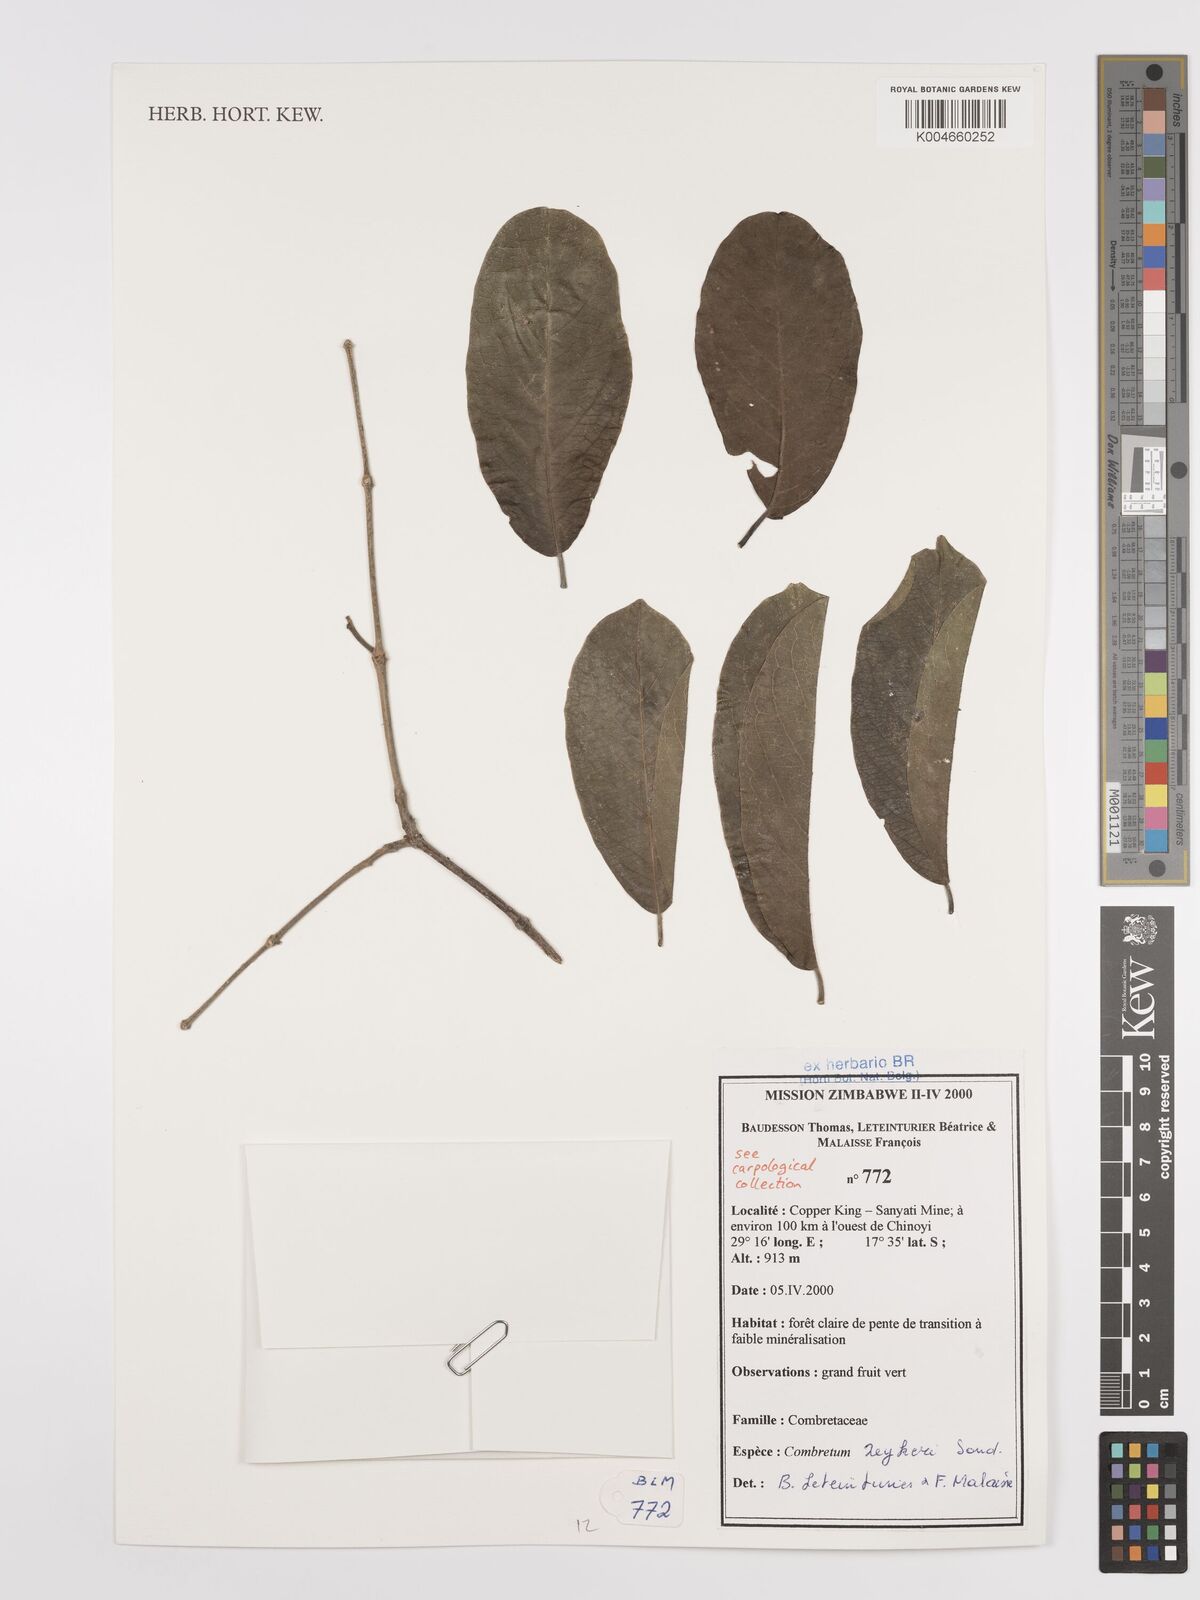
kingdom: Plantae
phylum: Tracheophyta
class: Magnoliopsida
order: Myrtales
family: Combretaceae
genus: Combretum
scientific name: Combretum zeyheri
